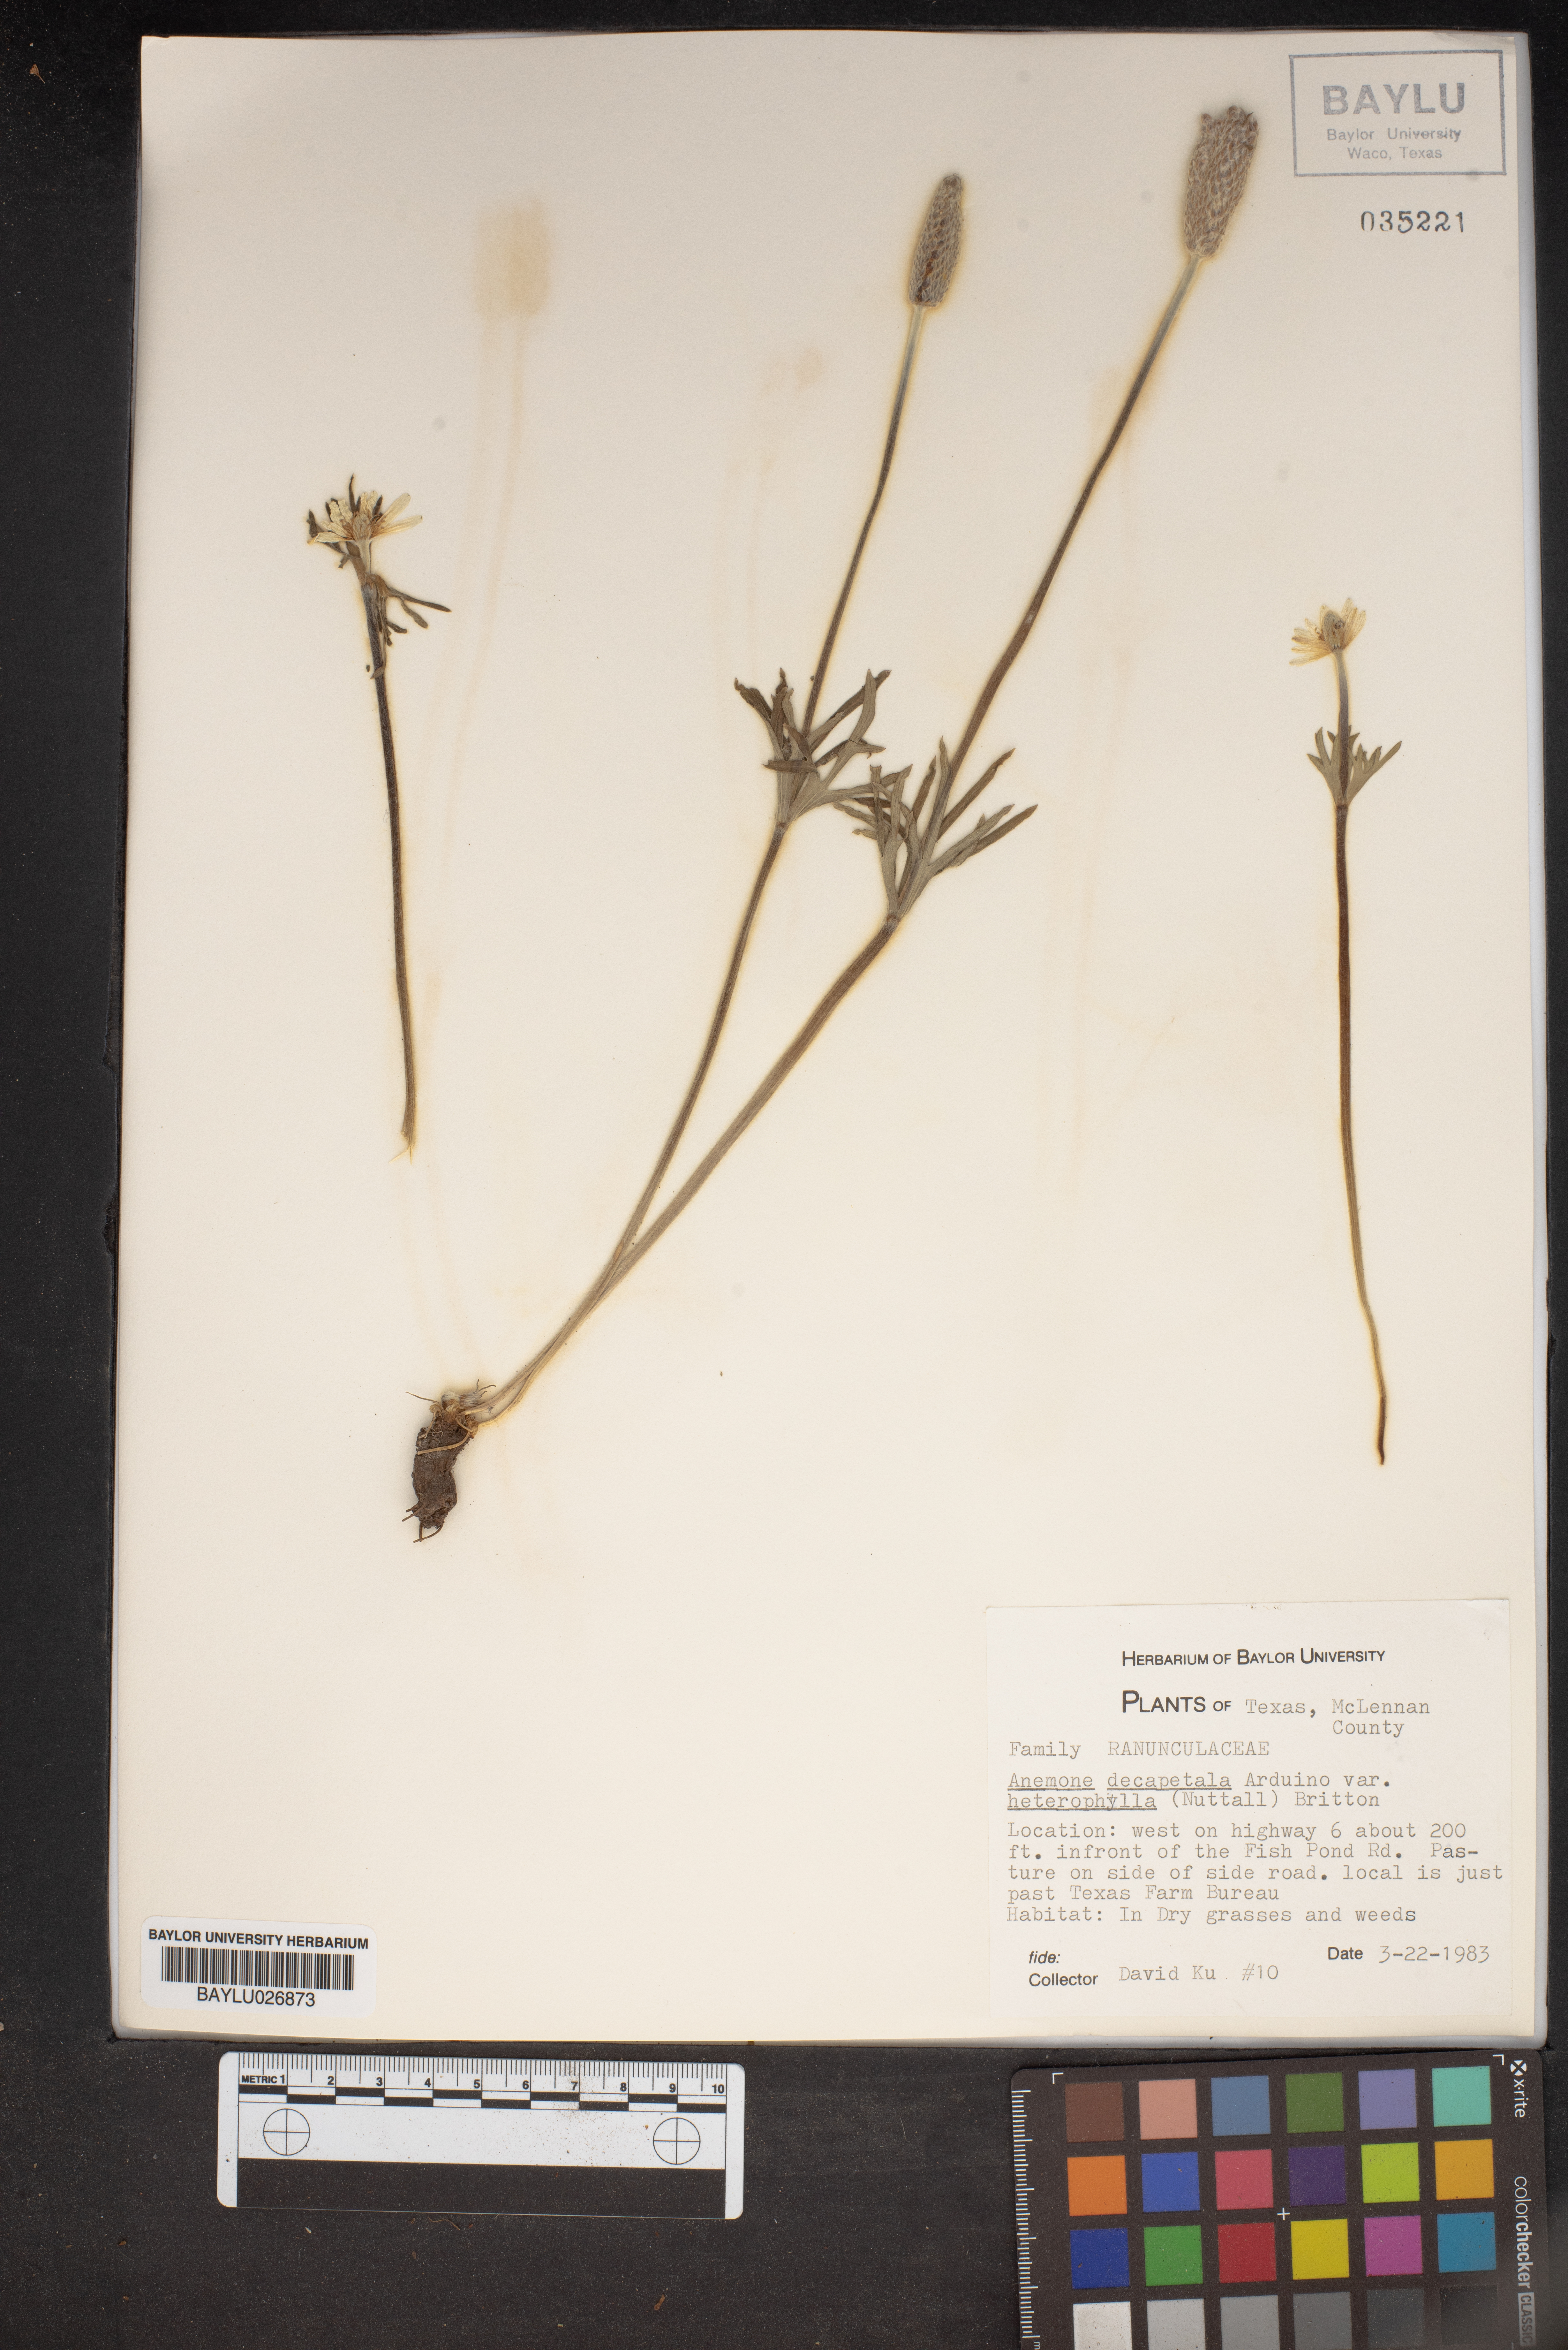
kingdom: Plantae
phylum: Tracheophyta
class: Magnoliopsida
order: Ranunculales
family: Ranunculaceae
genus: Anemone
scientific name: Anemone berlandieri
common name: Ten-petal anemone
